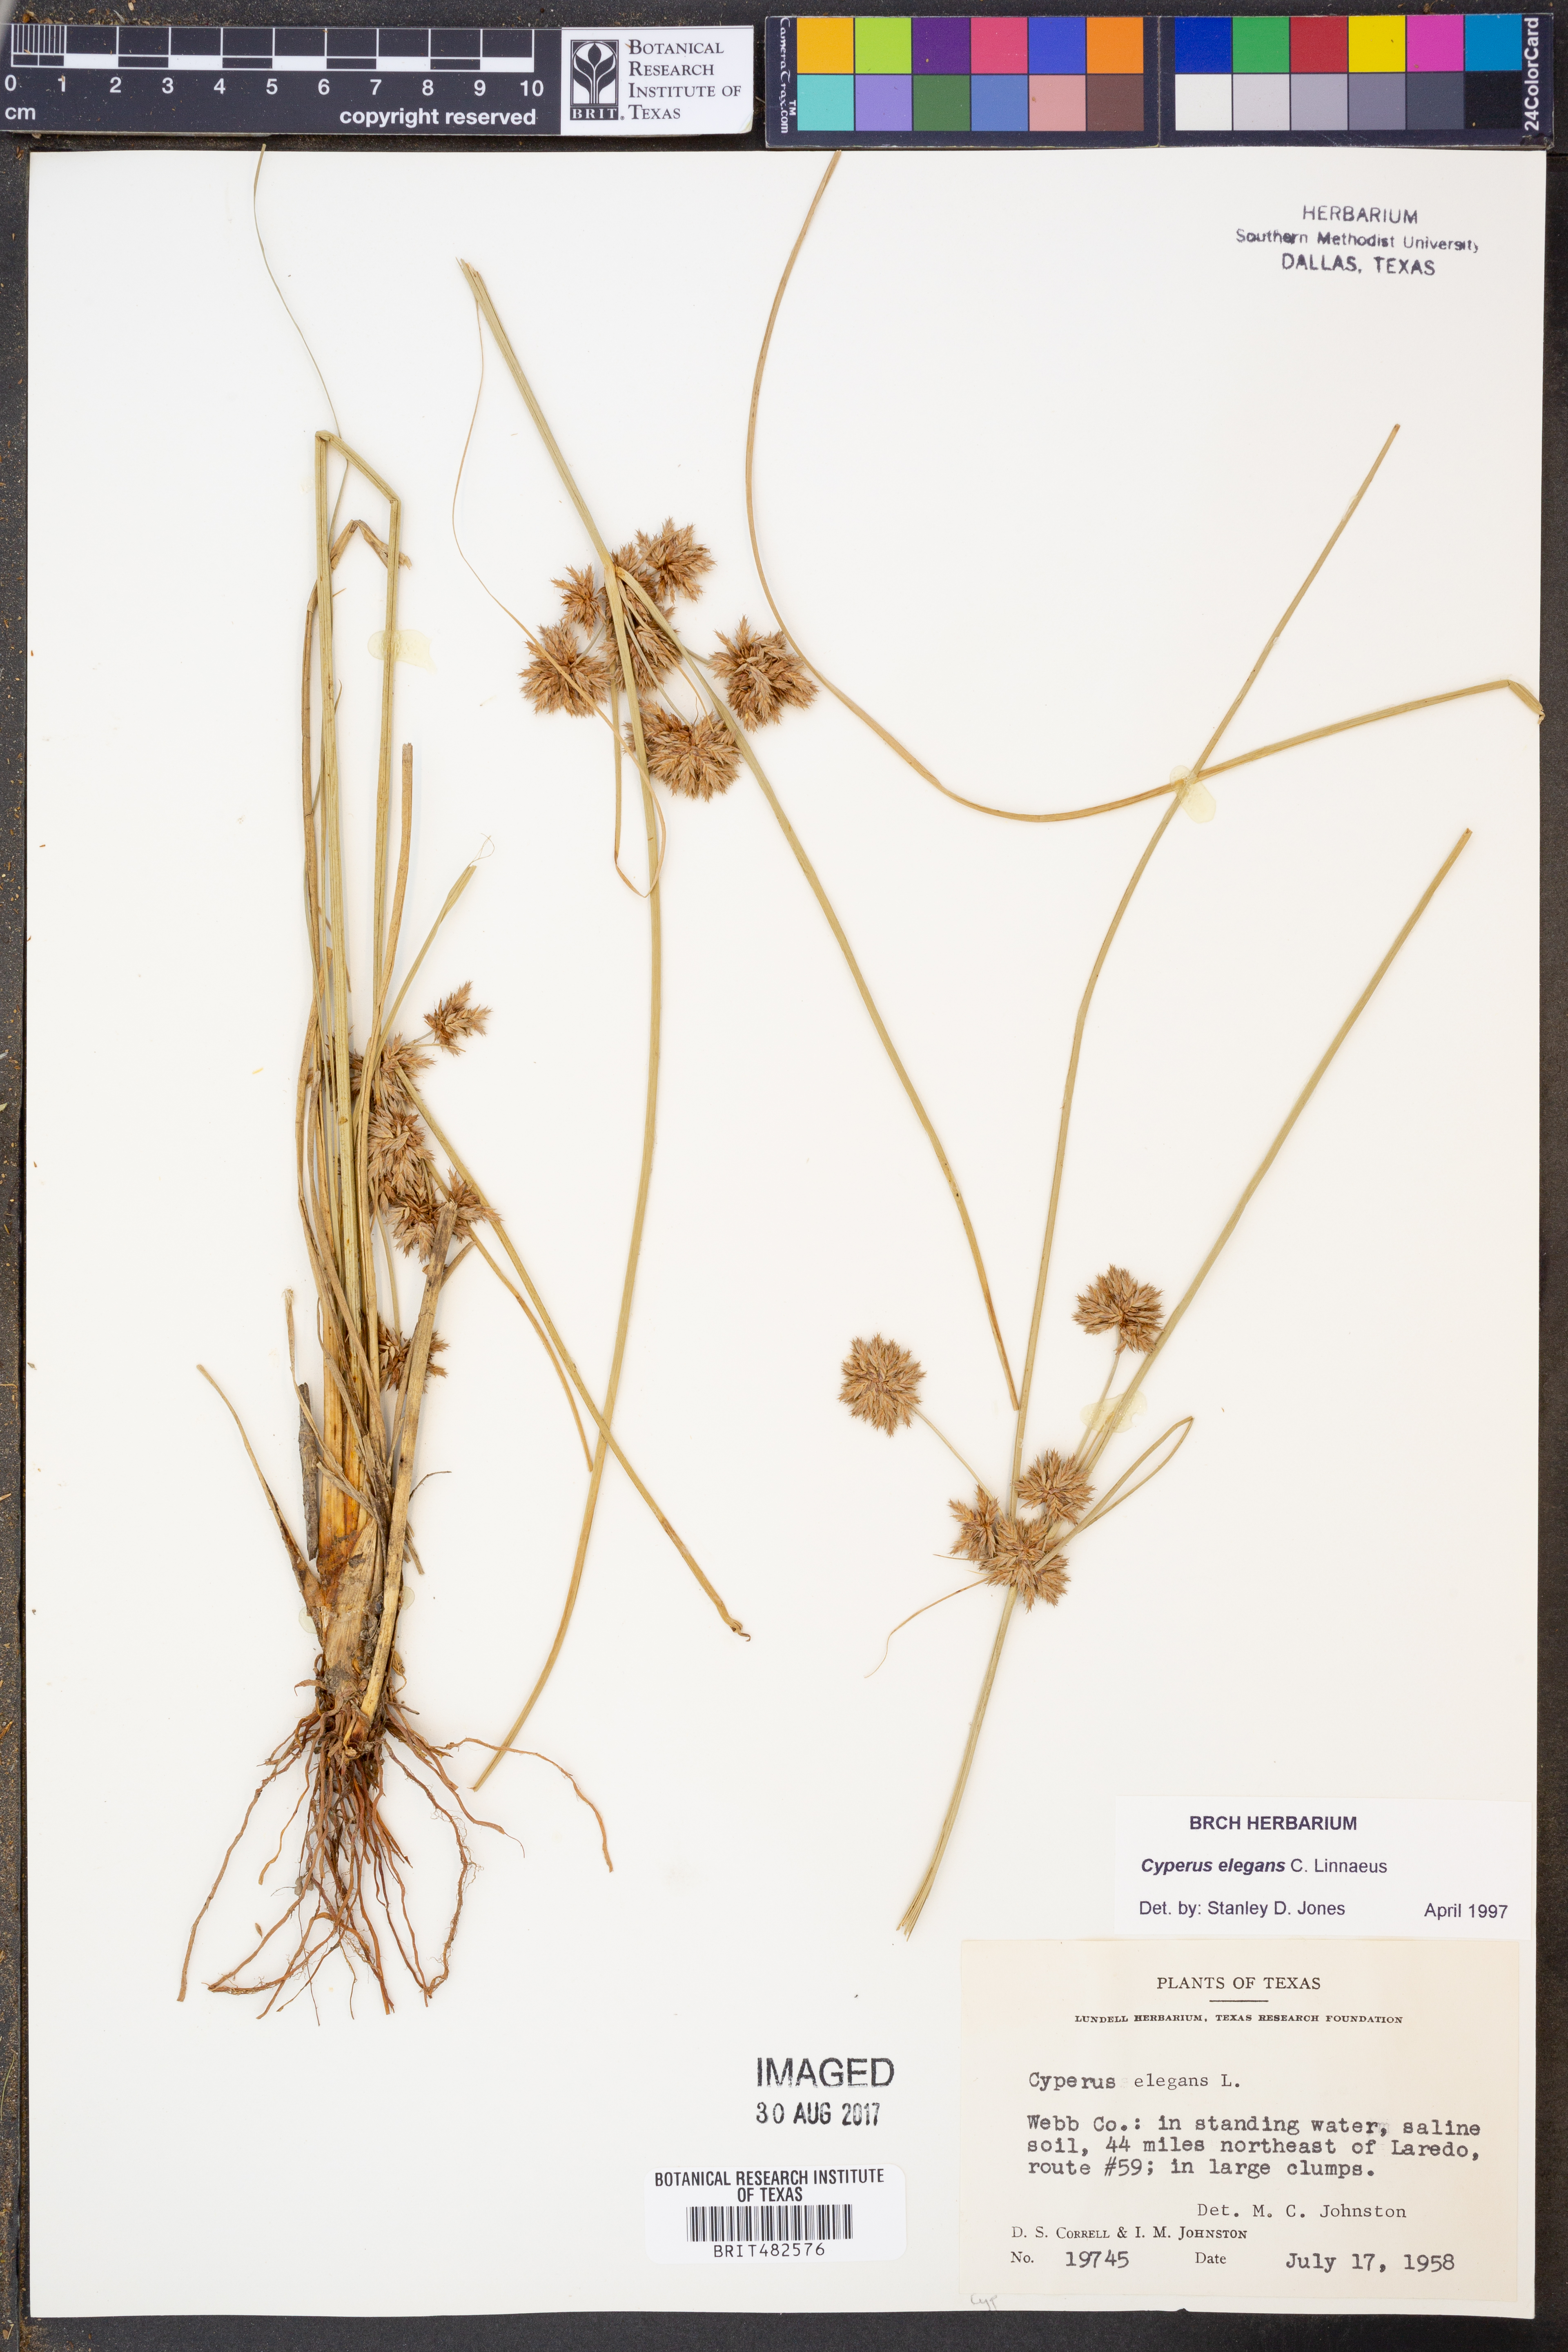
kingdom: Plantae
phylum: Tracheophyta
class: Liliopsida
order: Poales
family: Cyperaceae
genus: Cyperus
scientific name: Cyperus elegans
